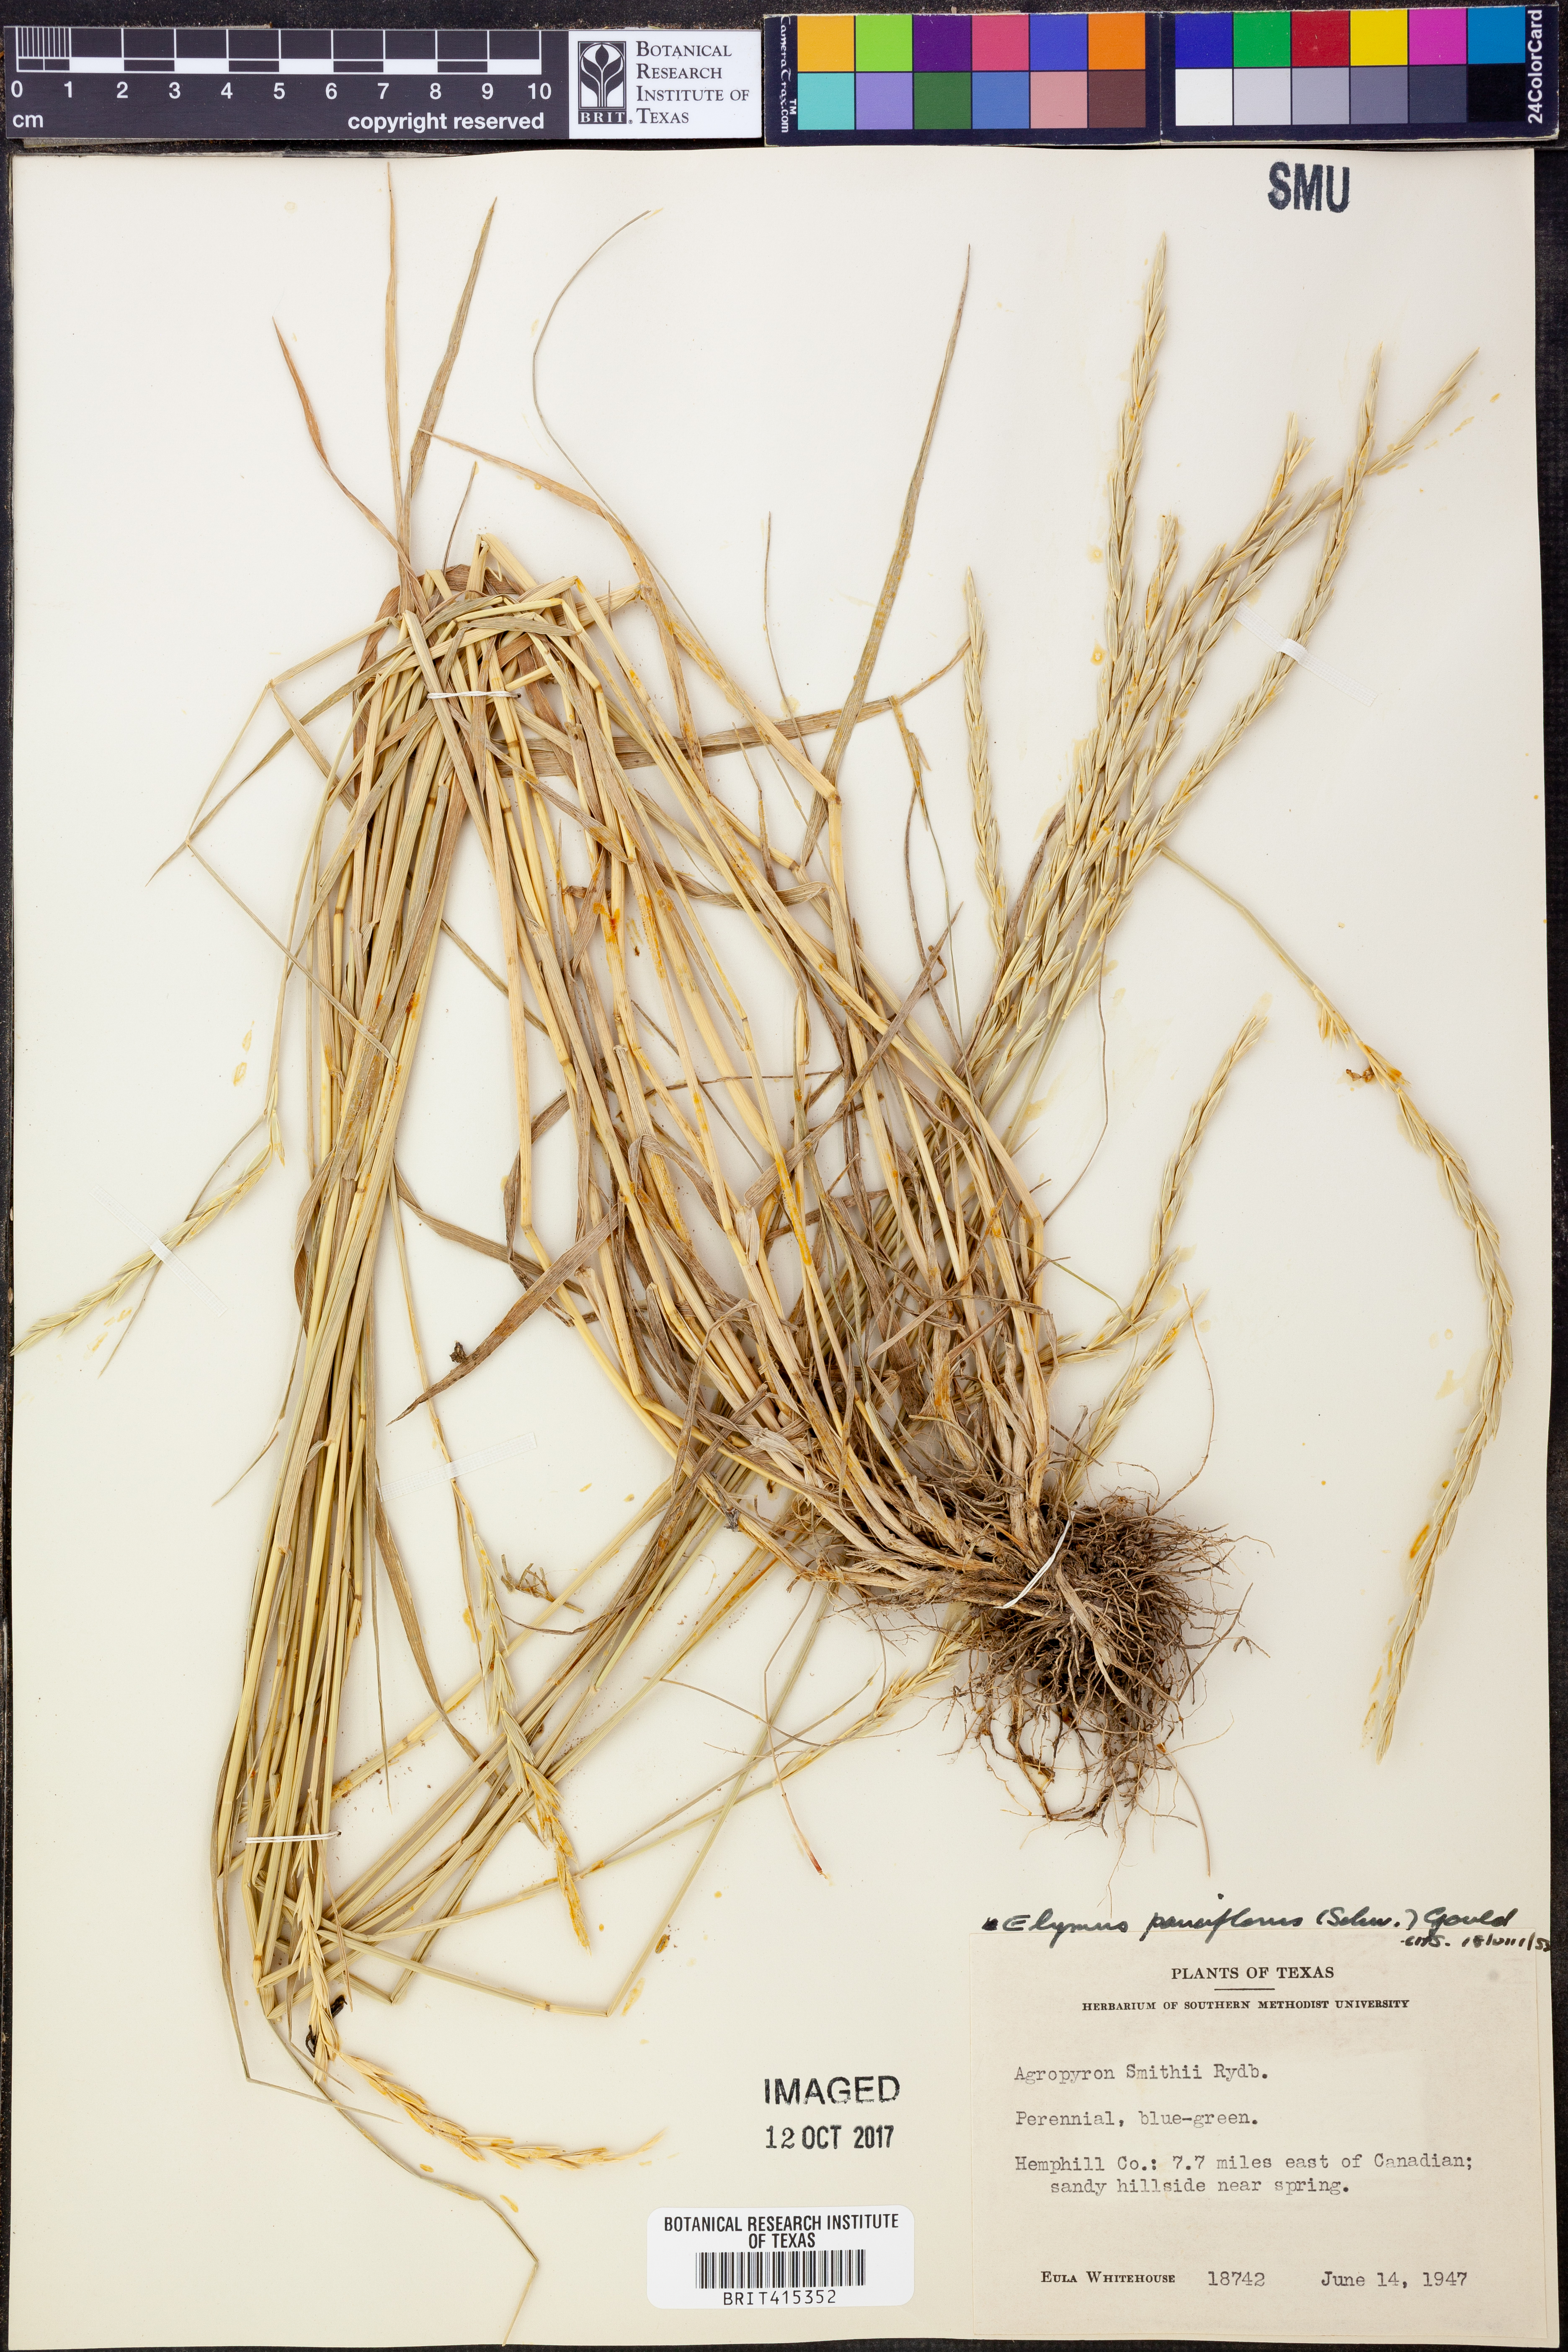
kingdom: Plantae
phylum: Tracheophyta
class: Liliopsida
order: Poales
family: Poaceae
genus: Elymus
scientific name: Elymus smithii
